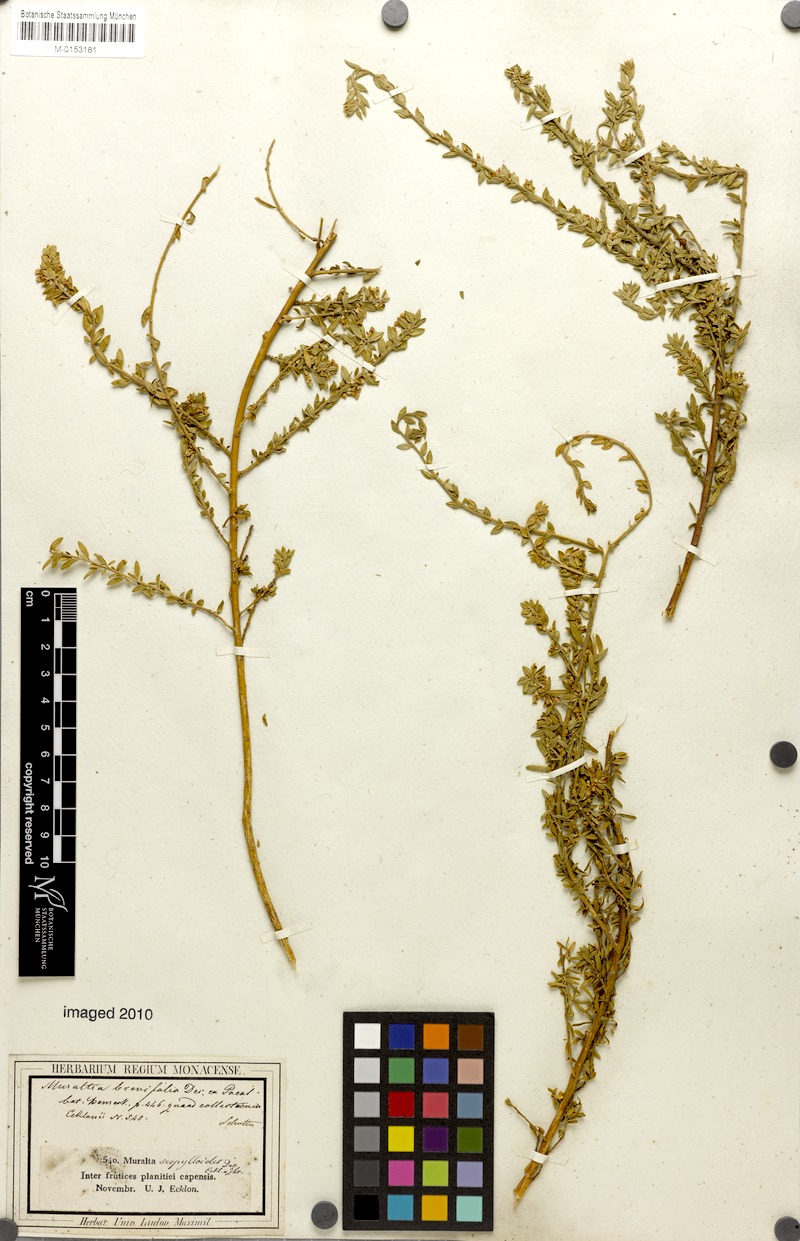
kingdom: Plantae
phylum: Tracheophyta
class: Magnoliopsida
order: Fabales
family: Polygalaceae
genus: Muraltia
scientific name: Muraltia dumosa
